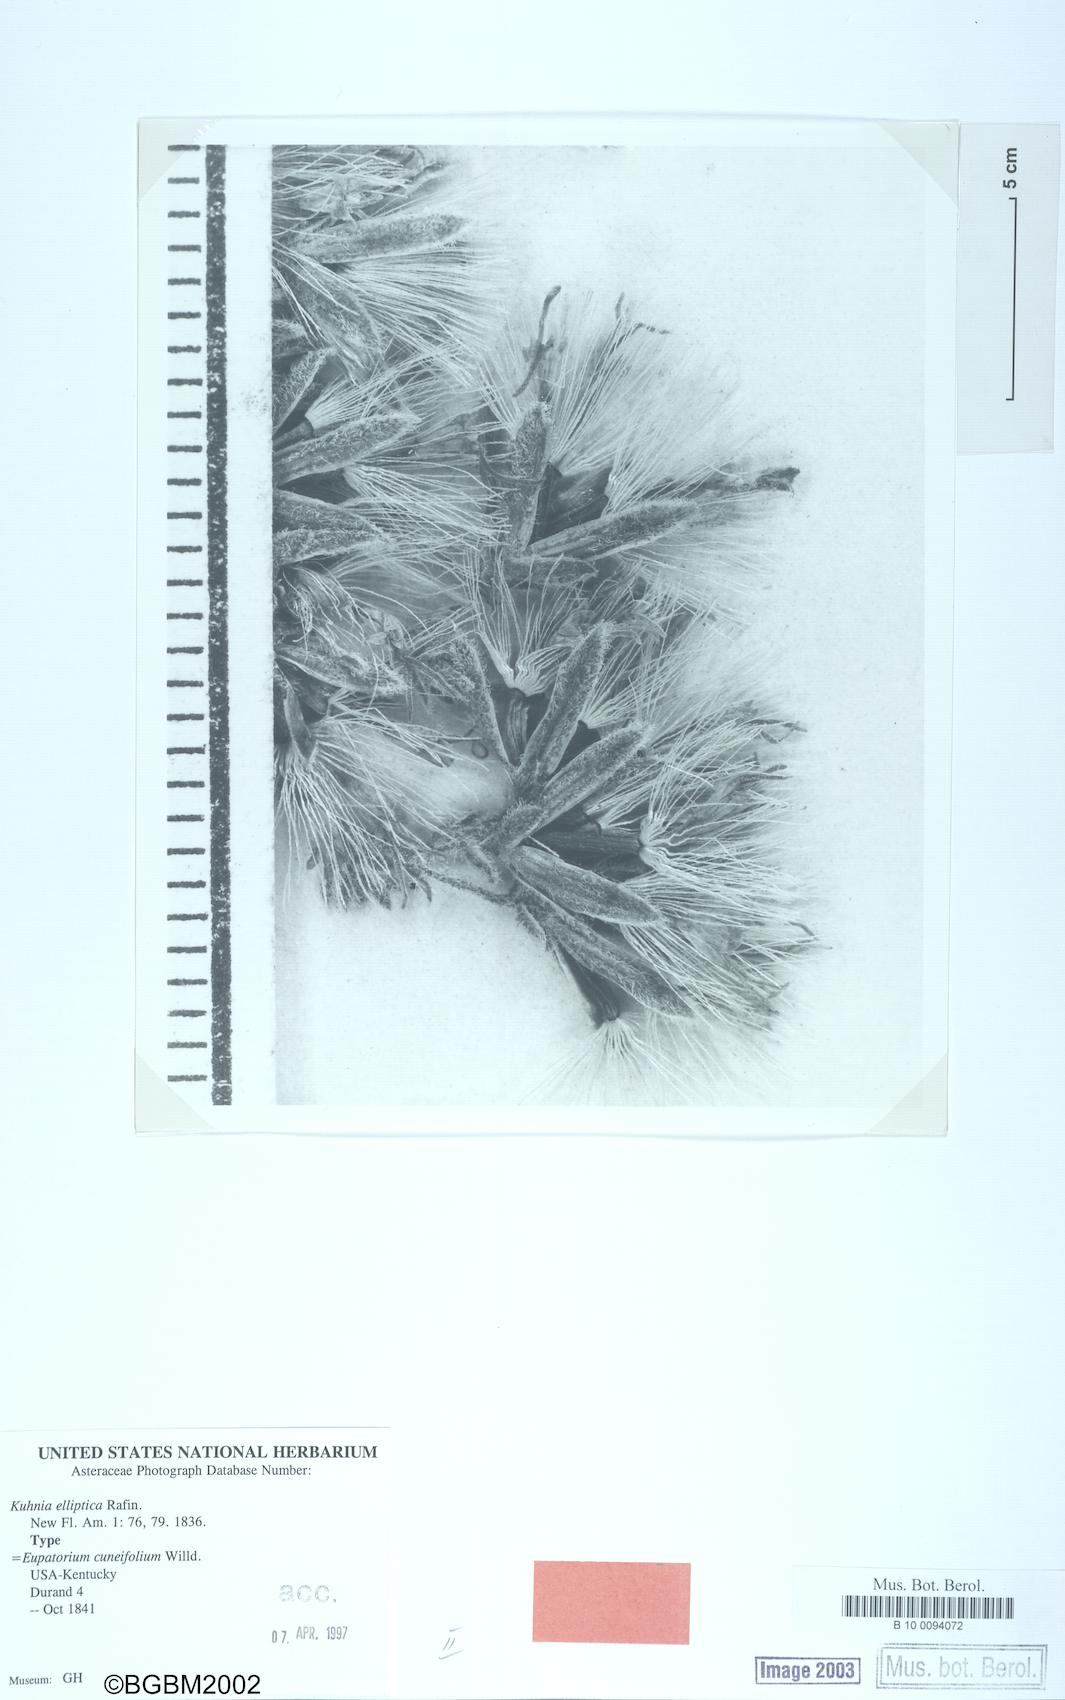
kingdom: Plantae
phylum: Tracheophyta
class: Magnoliopsida
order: Asterales
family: Asteraceae
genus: Eupatorium
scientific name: Eupatorium linearifolium
